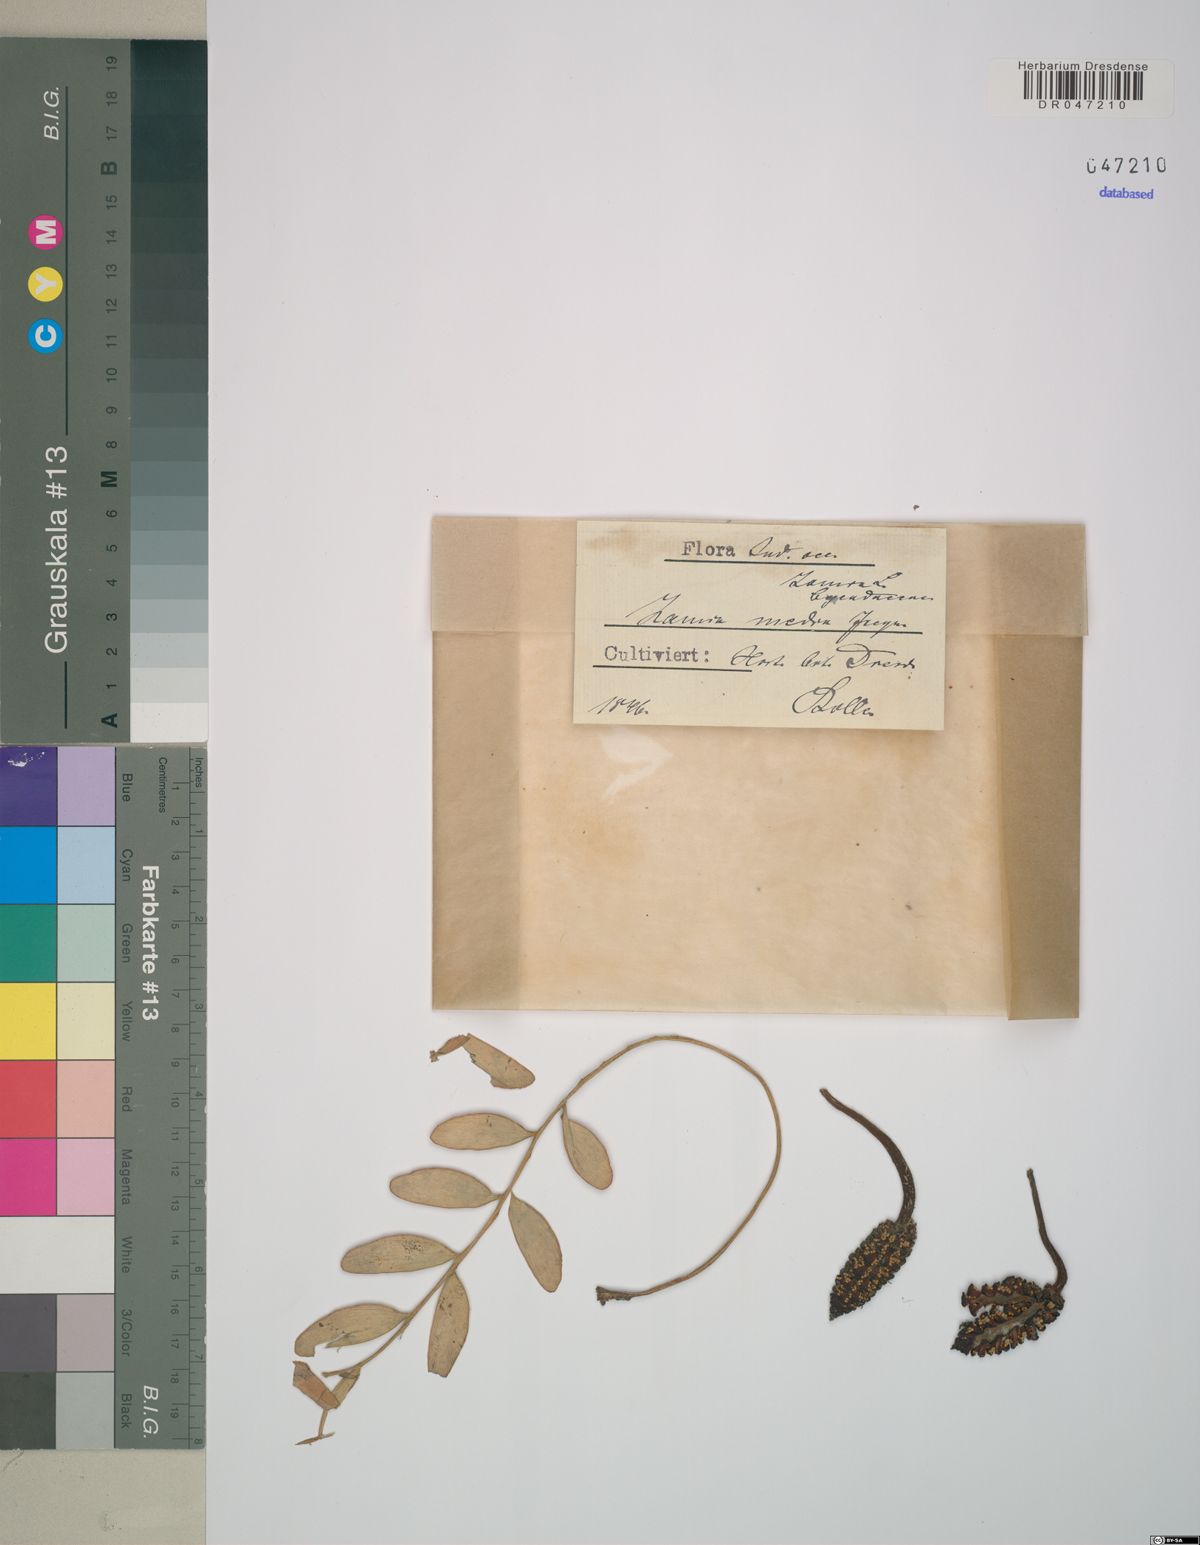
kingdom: Plantae
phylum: Tracheophyta
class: Cycadopsida
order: Cycadales
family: Zamiaceae
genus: Zamia
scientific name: Zamia integrifolia
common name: Florida arrowroot
